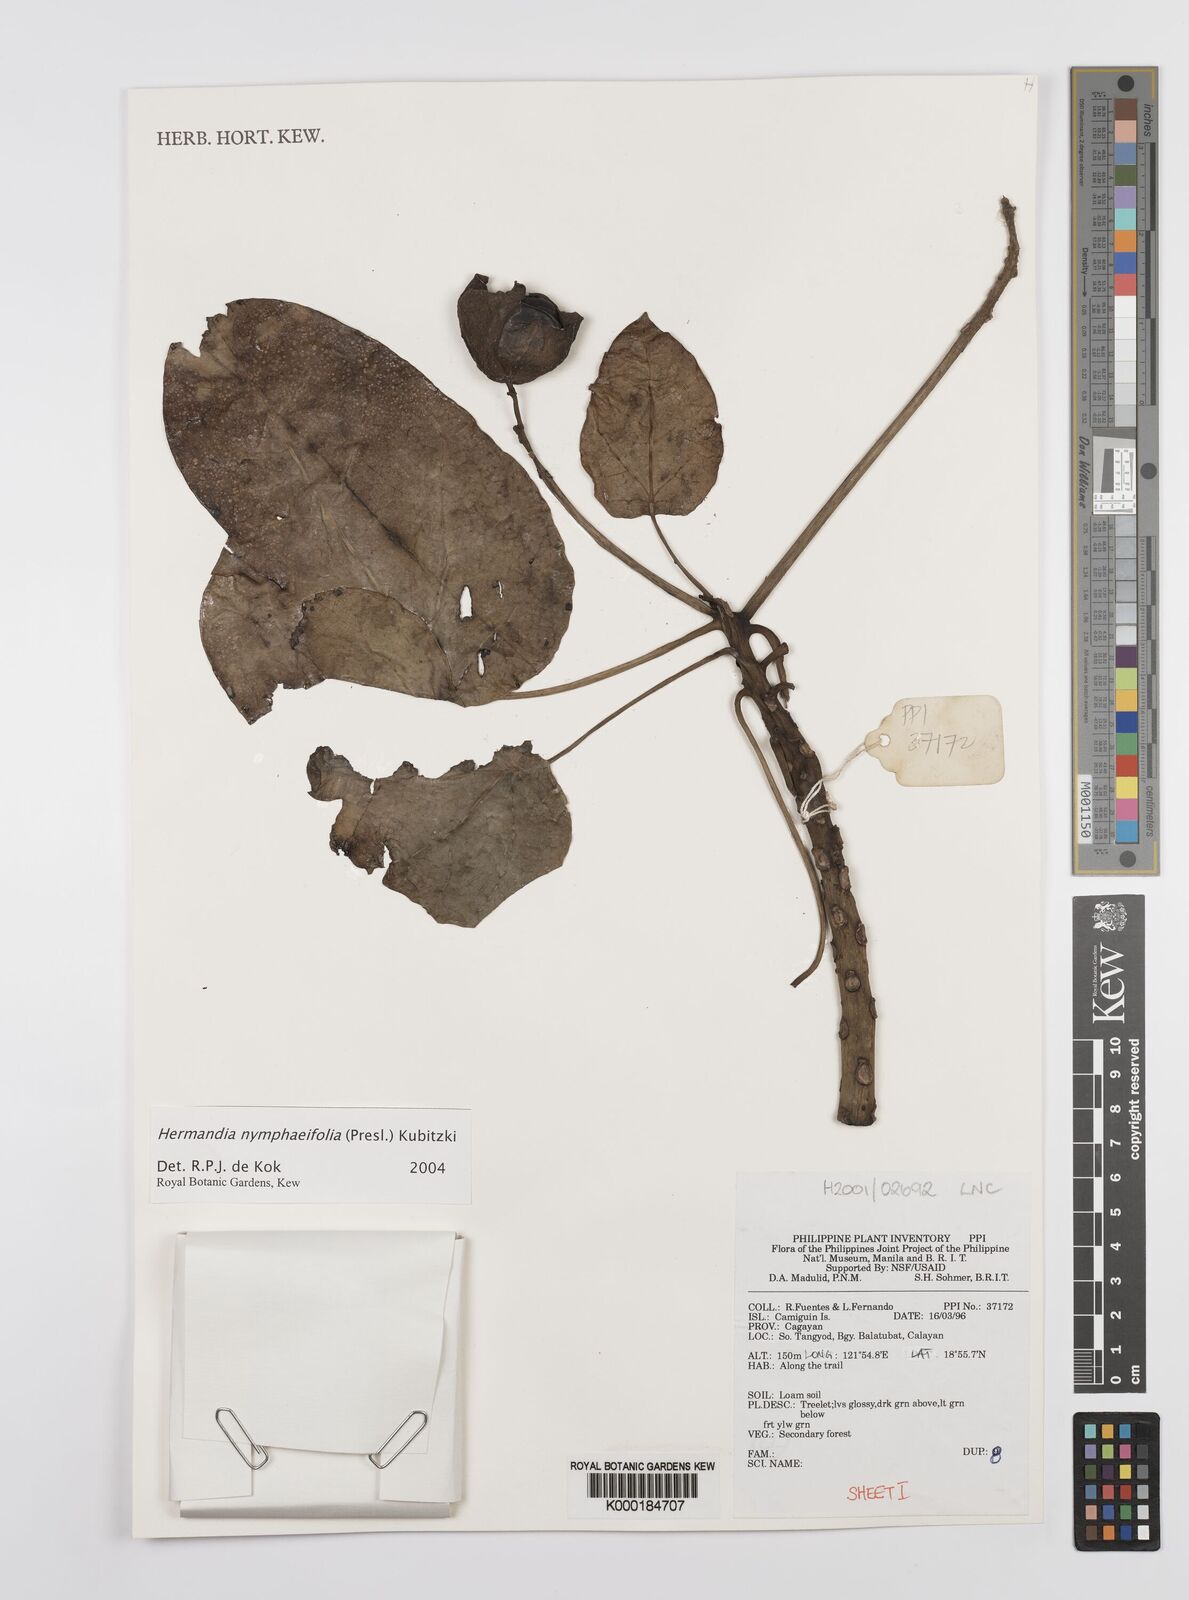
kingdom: Plantae
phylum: Tracheophyta
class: Magnoliopsida
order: Laurales
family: Hernandiaceae
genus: Hernandia
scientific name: Hernandia nymphaeifolia
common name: Sea hearse
